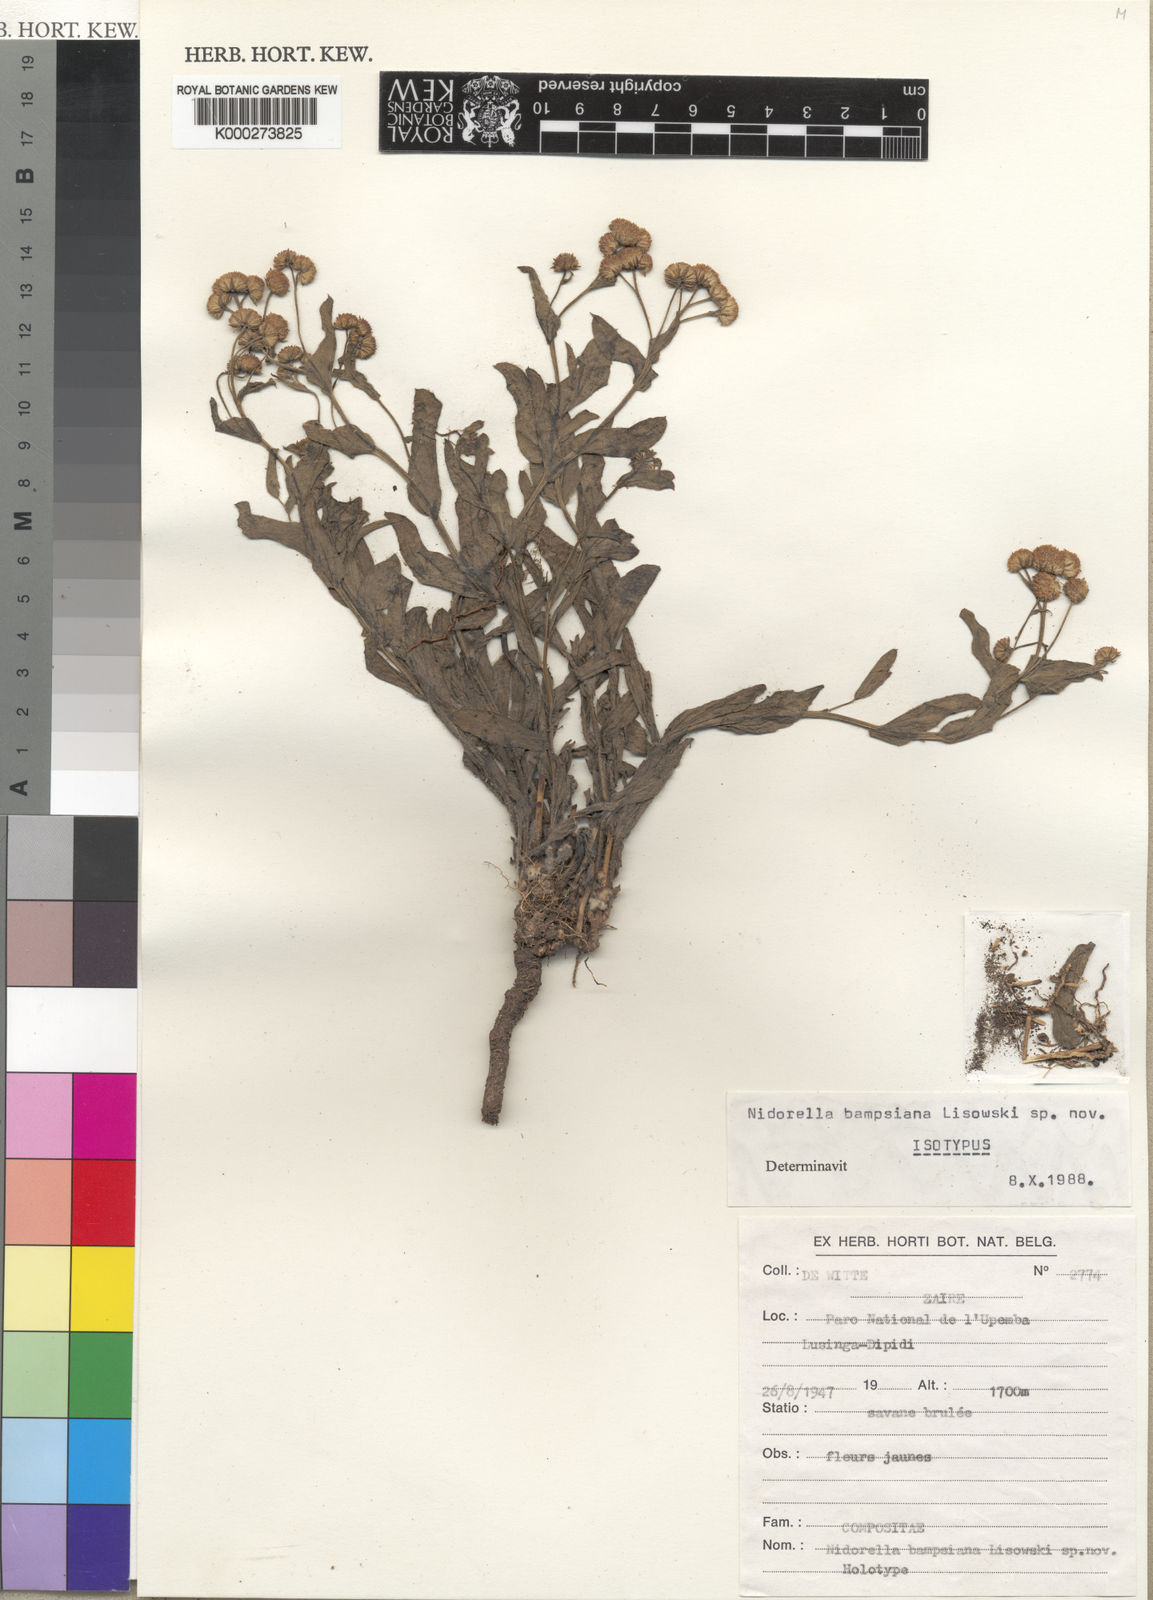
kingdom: Plantae
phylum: Tracheophyta
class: Magnoliopsida
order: Asterales
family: Asteraceae
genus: Nidorella
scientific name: Nidorella bampsiana
